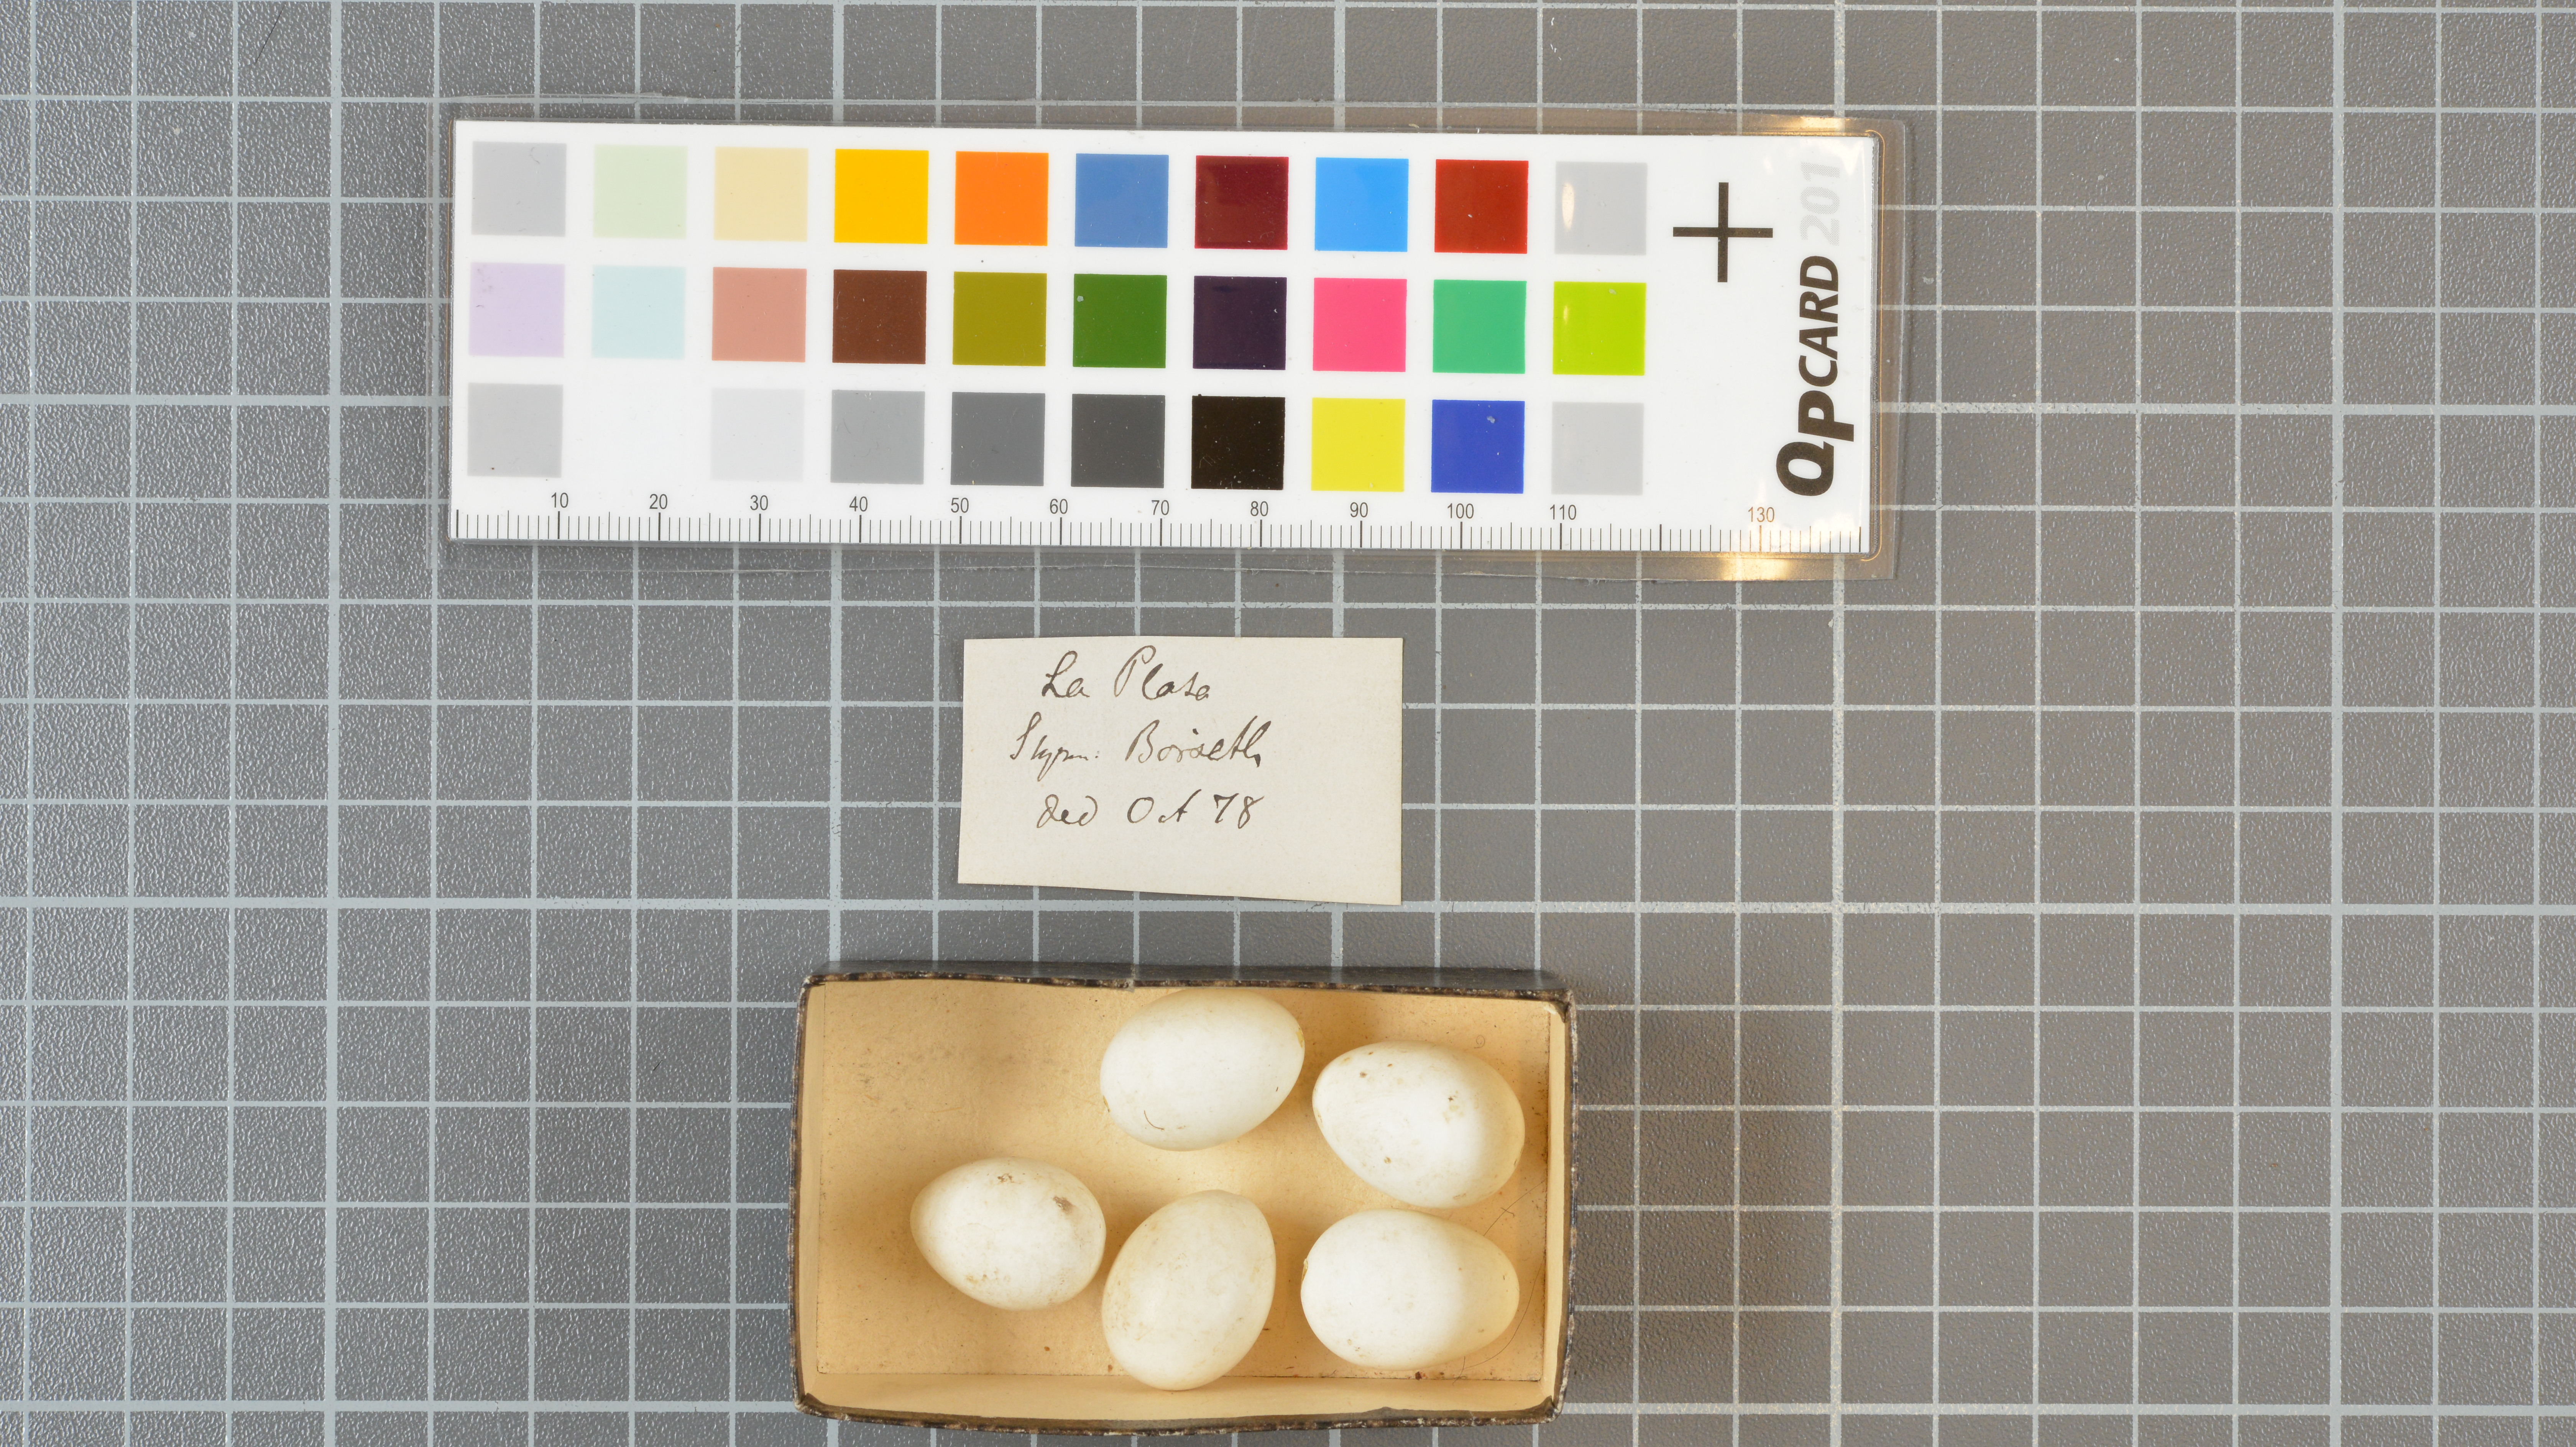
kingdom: Animalia
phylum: Chordata
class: Aves
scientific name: Aves
